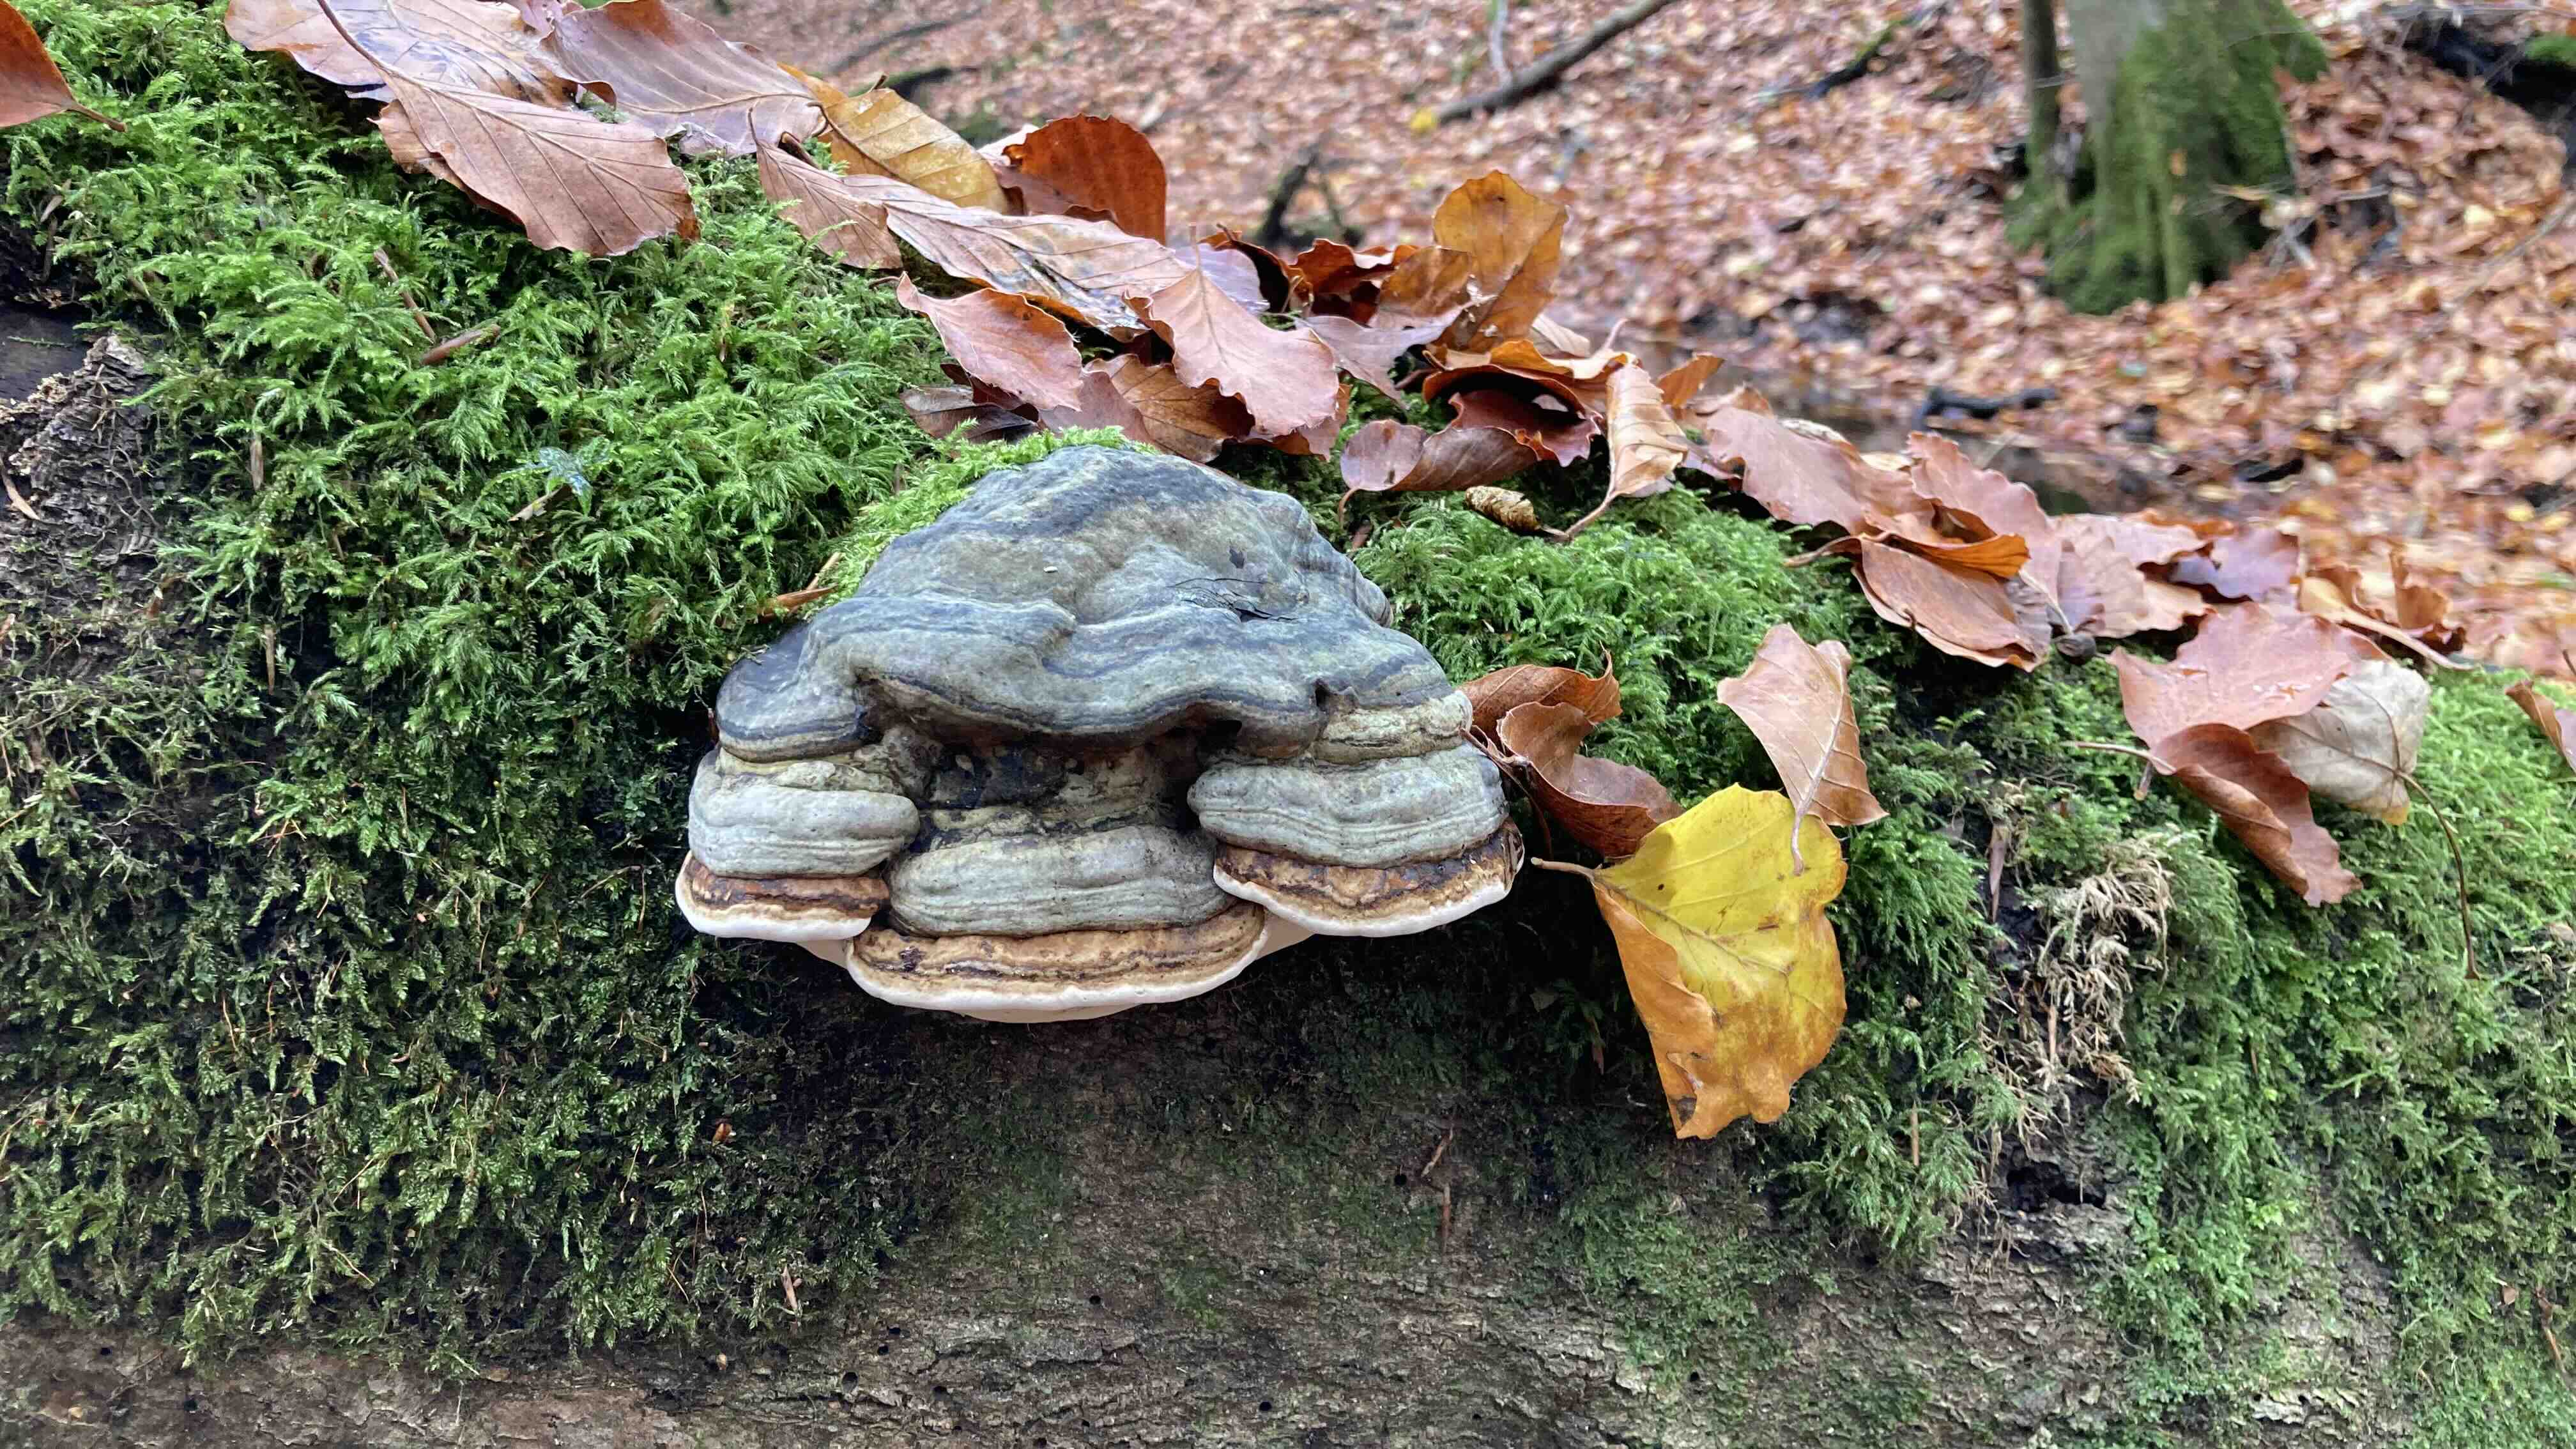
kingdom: Fungi
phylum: Basidiomycota
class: Agaricomycetes
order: Polyporales
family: Polyporaceae
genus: Fomes
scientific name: Fomes fomentarius
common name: tøndersvamp
